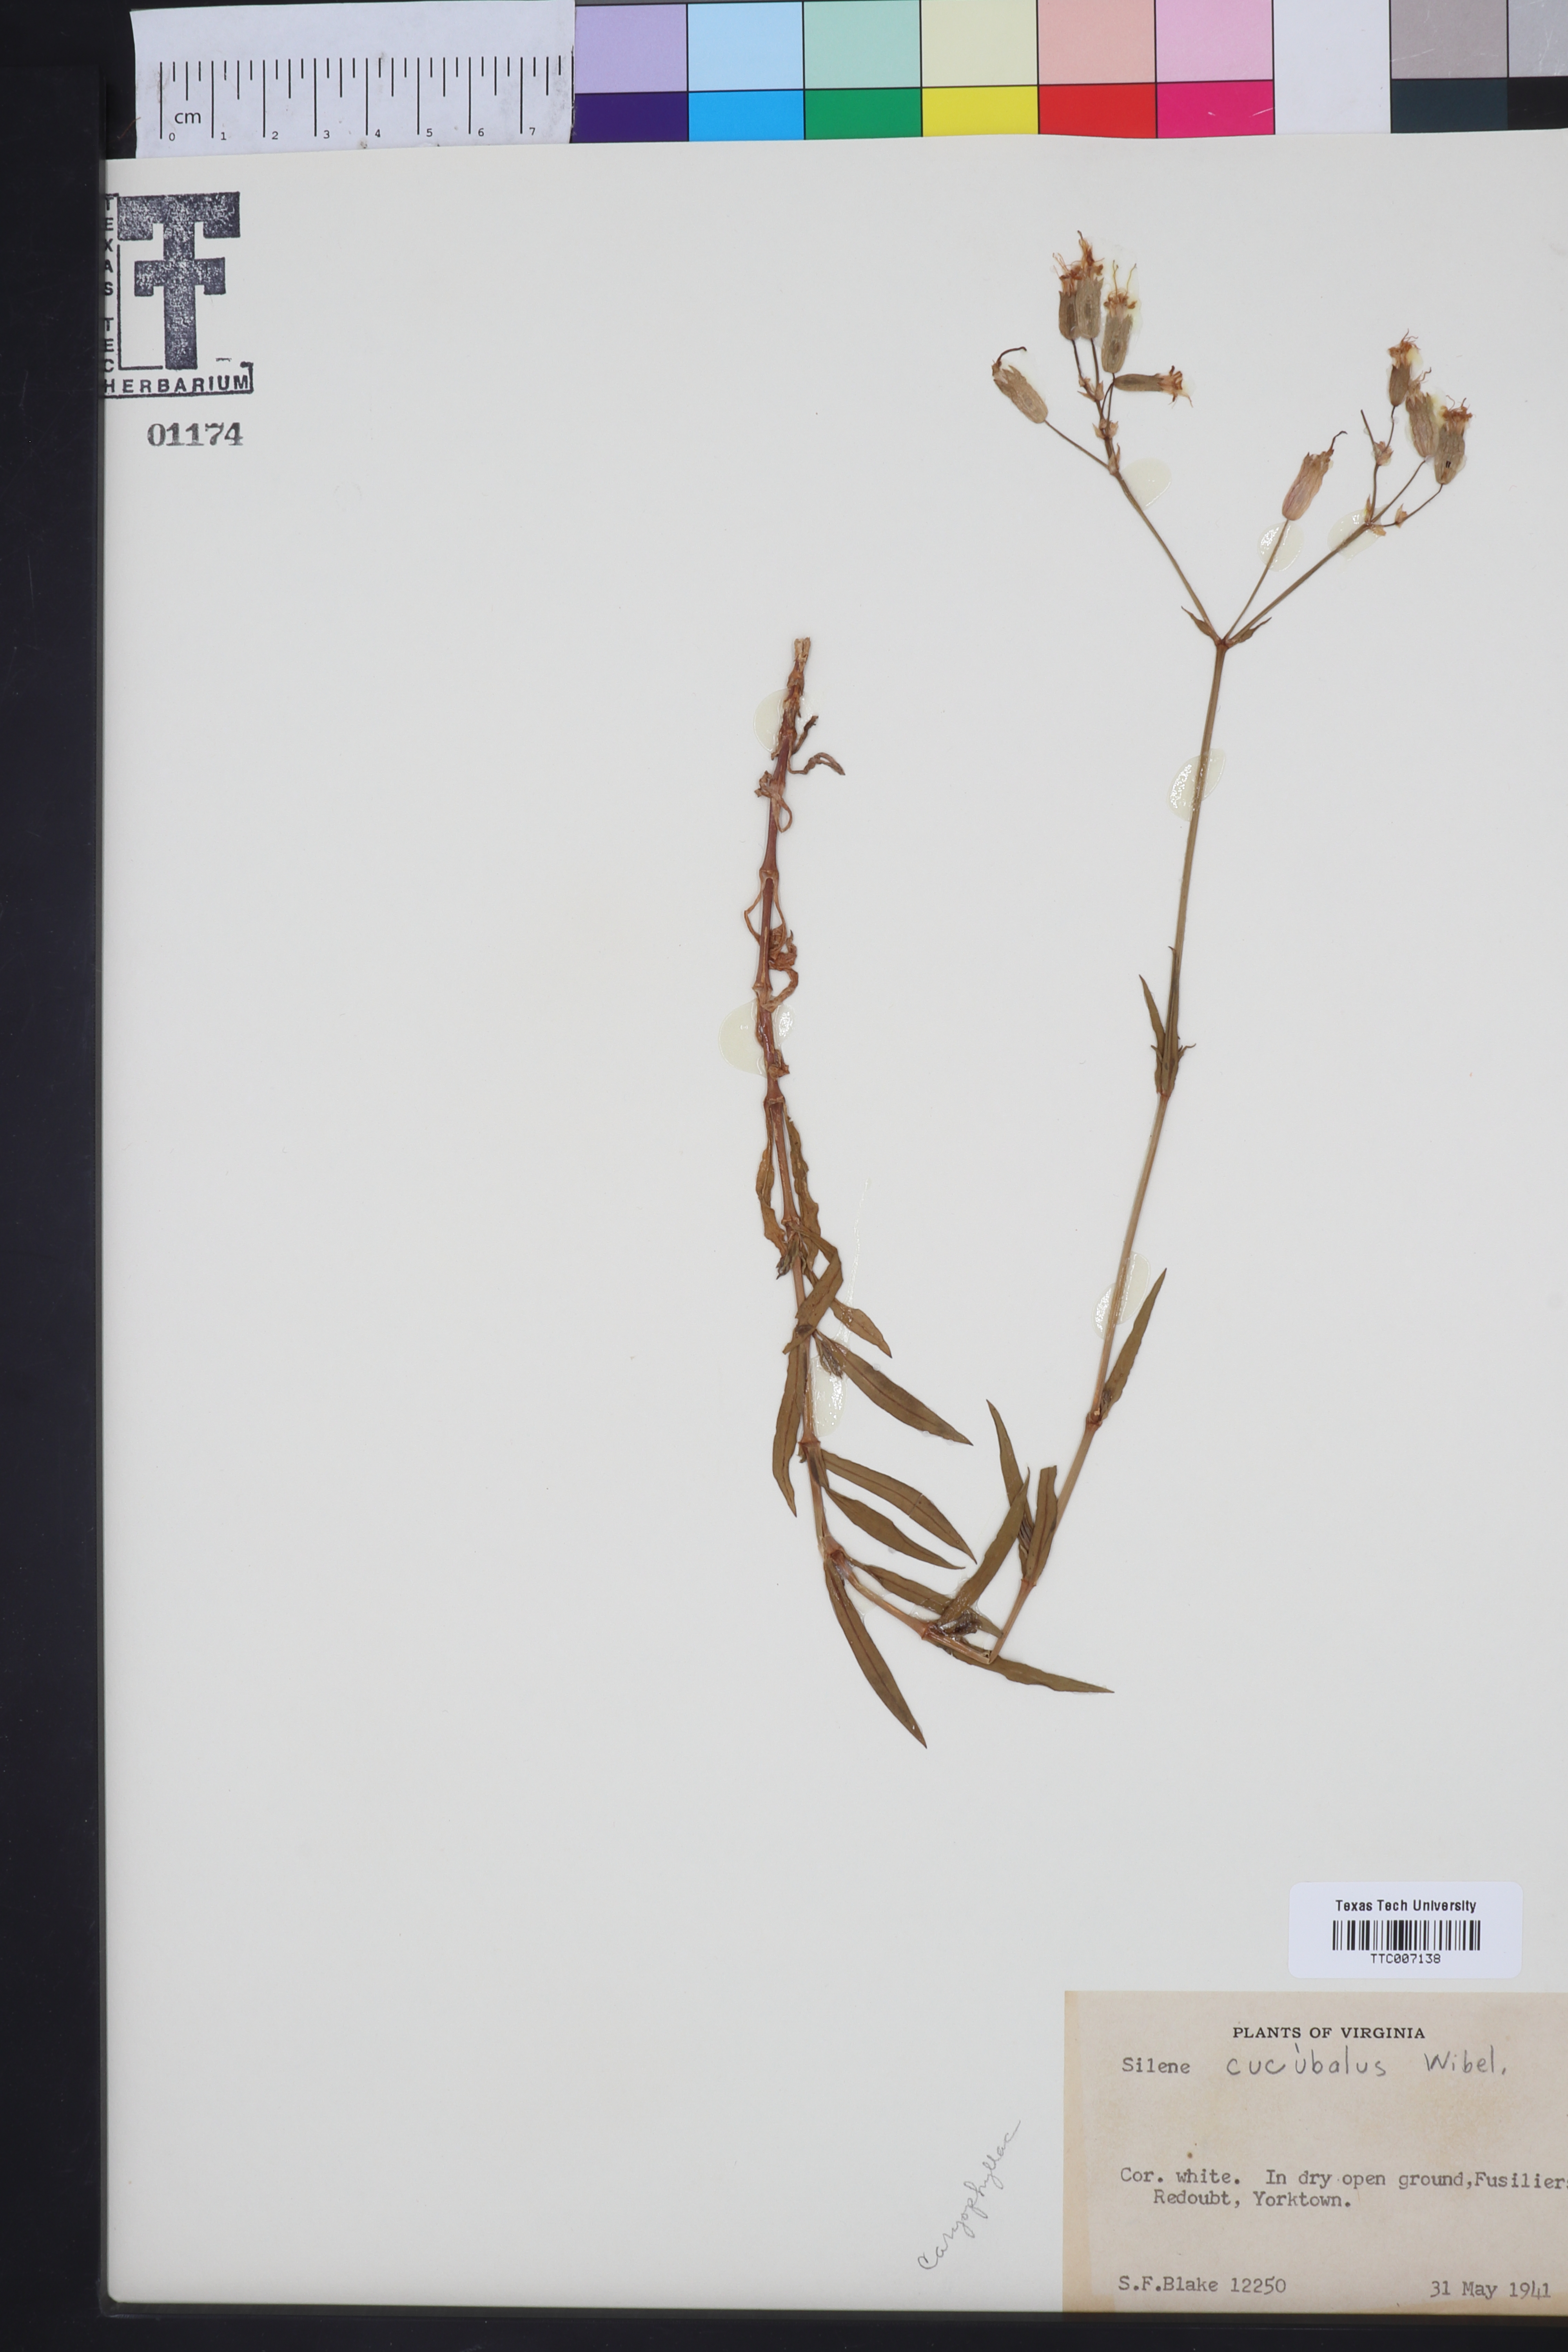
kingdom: Plantae
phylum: Tracheophyta
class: Magnoliopsida
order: Caryophyllales
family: Caryophyllaceae
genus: Silene
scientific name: Silene vulgaris
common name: Bladder campion
